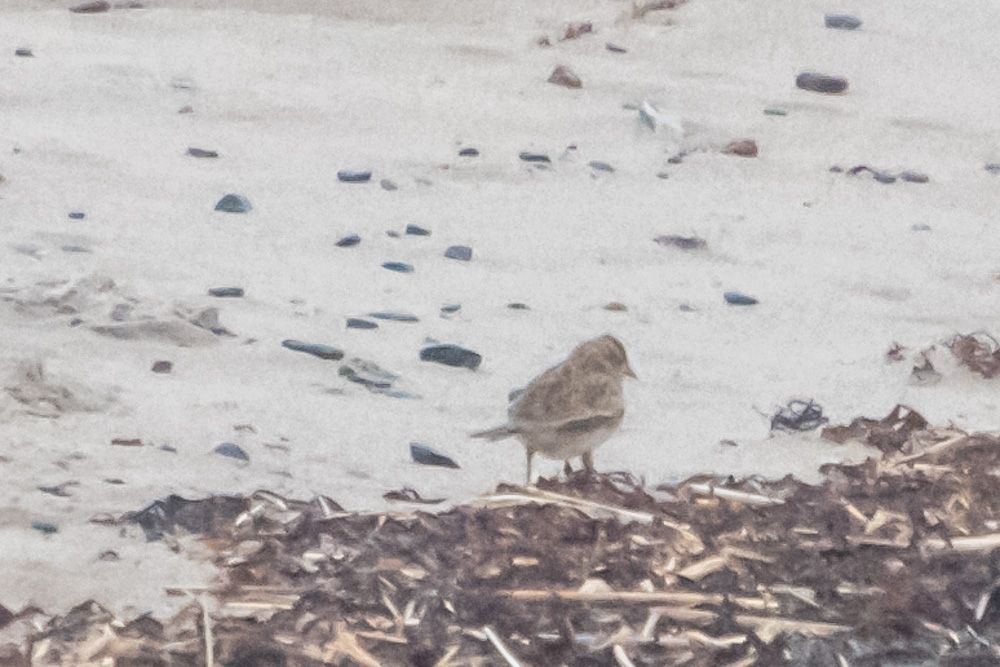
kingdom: Animalia
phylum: Chordata
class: Aves
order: Passeriformes
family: Alaudidae
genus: Alauda
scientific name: Alauda arvensis
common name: Eurasian skylark
